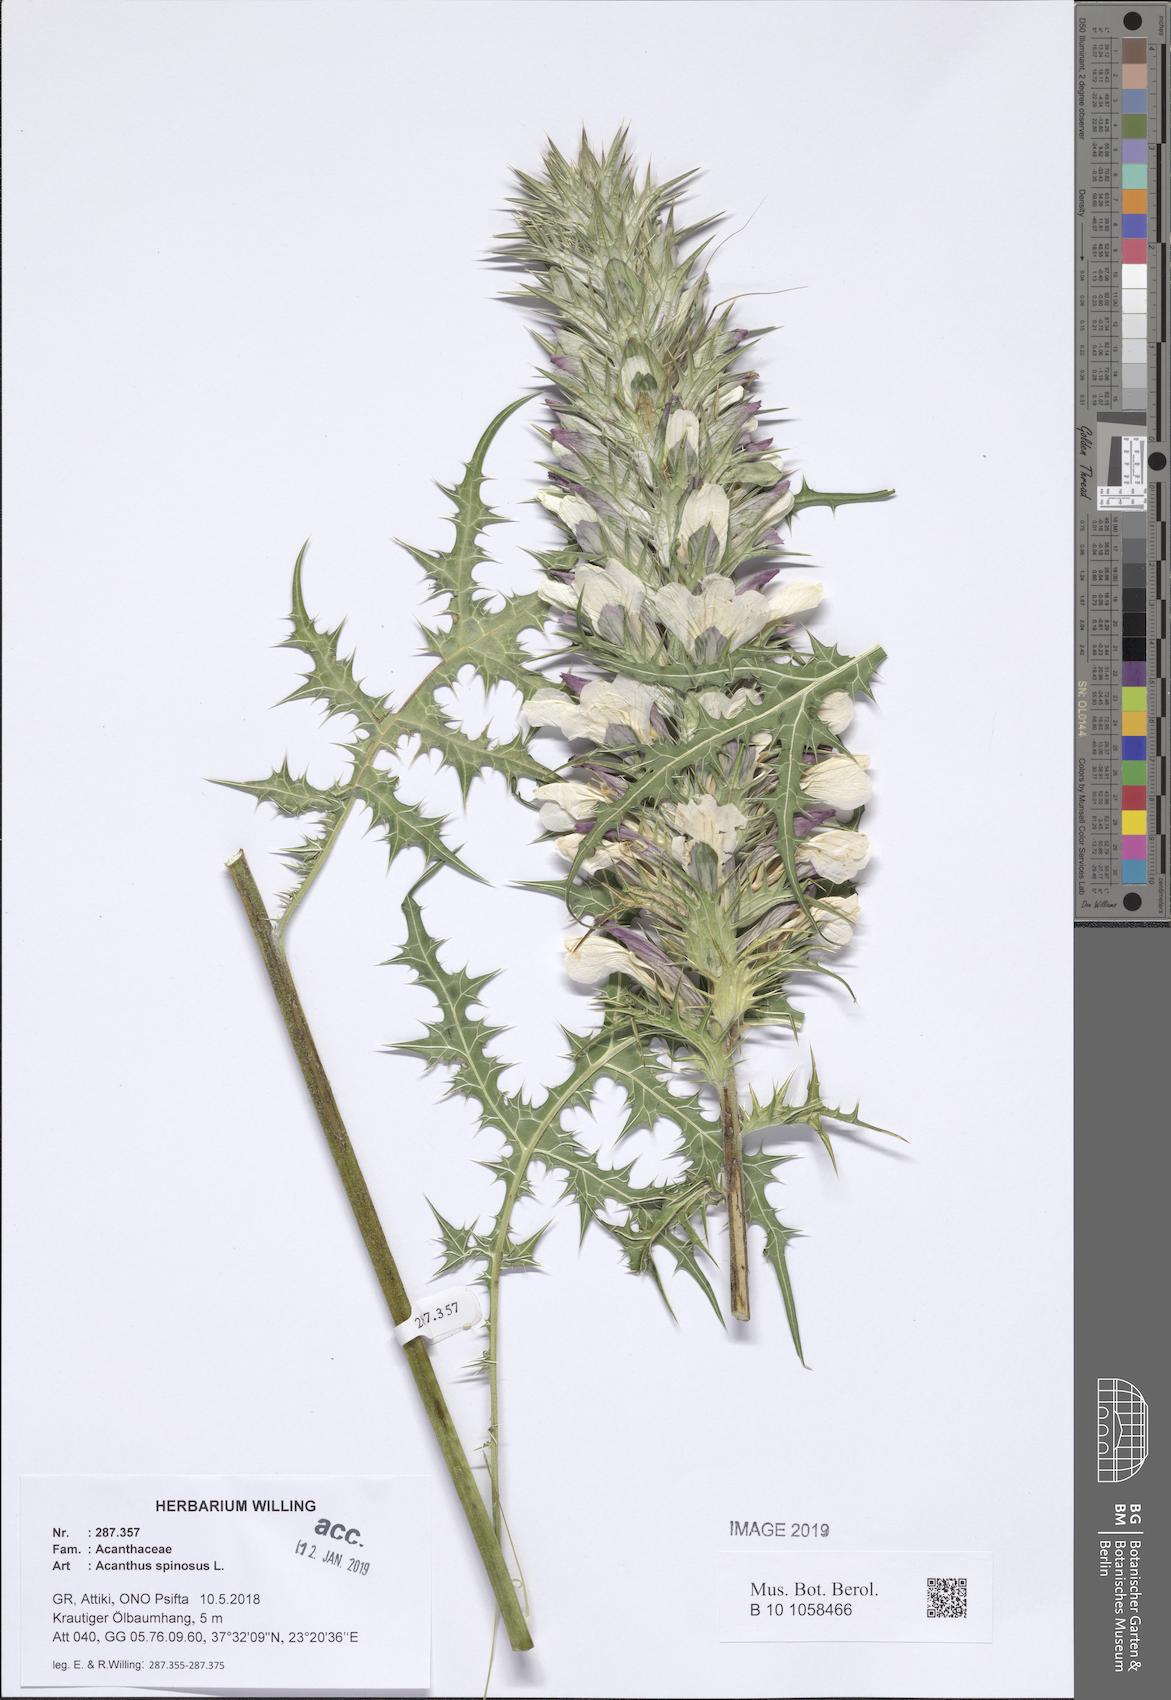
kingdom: Plantae
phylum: Tracheophyta
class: Magnoliopsida
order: Lamiales
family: Acanthaceae
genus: Acanthus
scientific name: Acanthus spinosus
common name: Spiny bear's-breech
